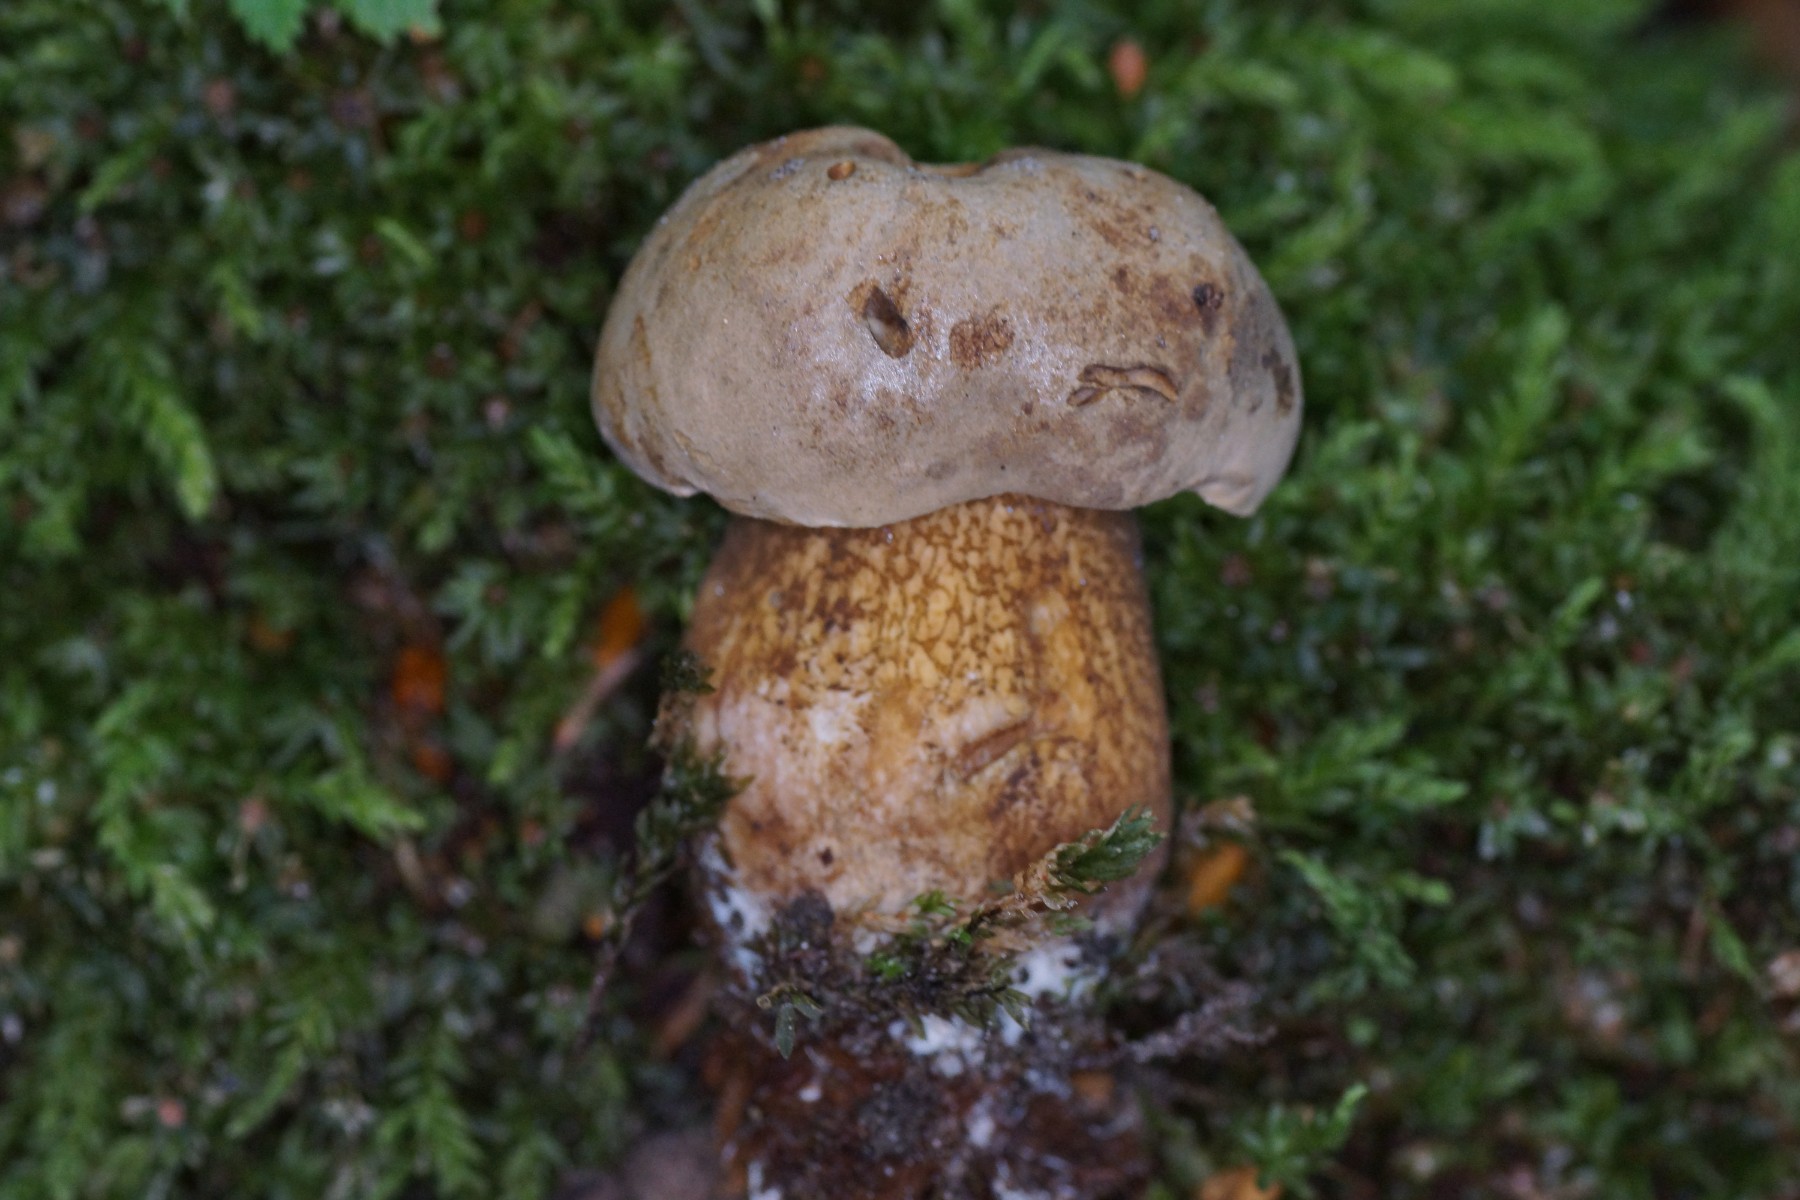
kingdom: Fungi
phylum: Basidiomycota
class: Agaricomycetes
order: Boletales
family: Boletaceae
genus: Tylopilus
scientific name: Tylopilus felleus
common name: galderørhat
